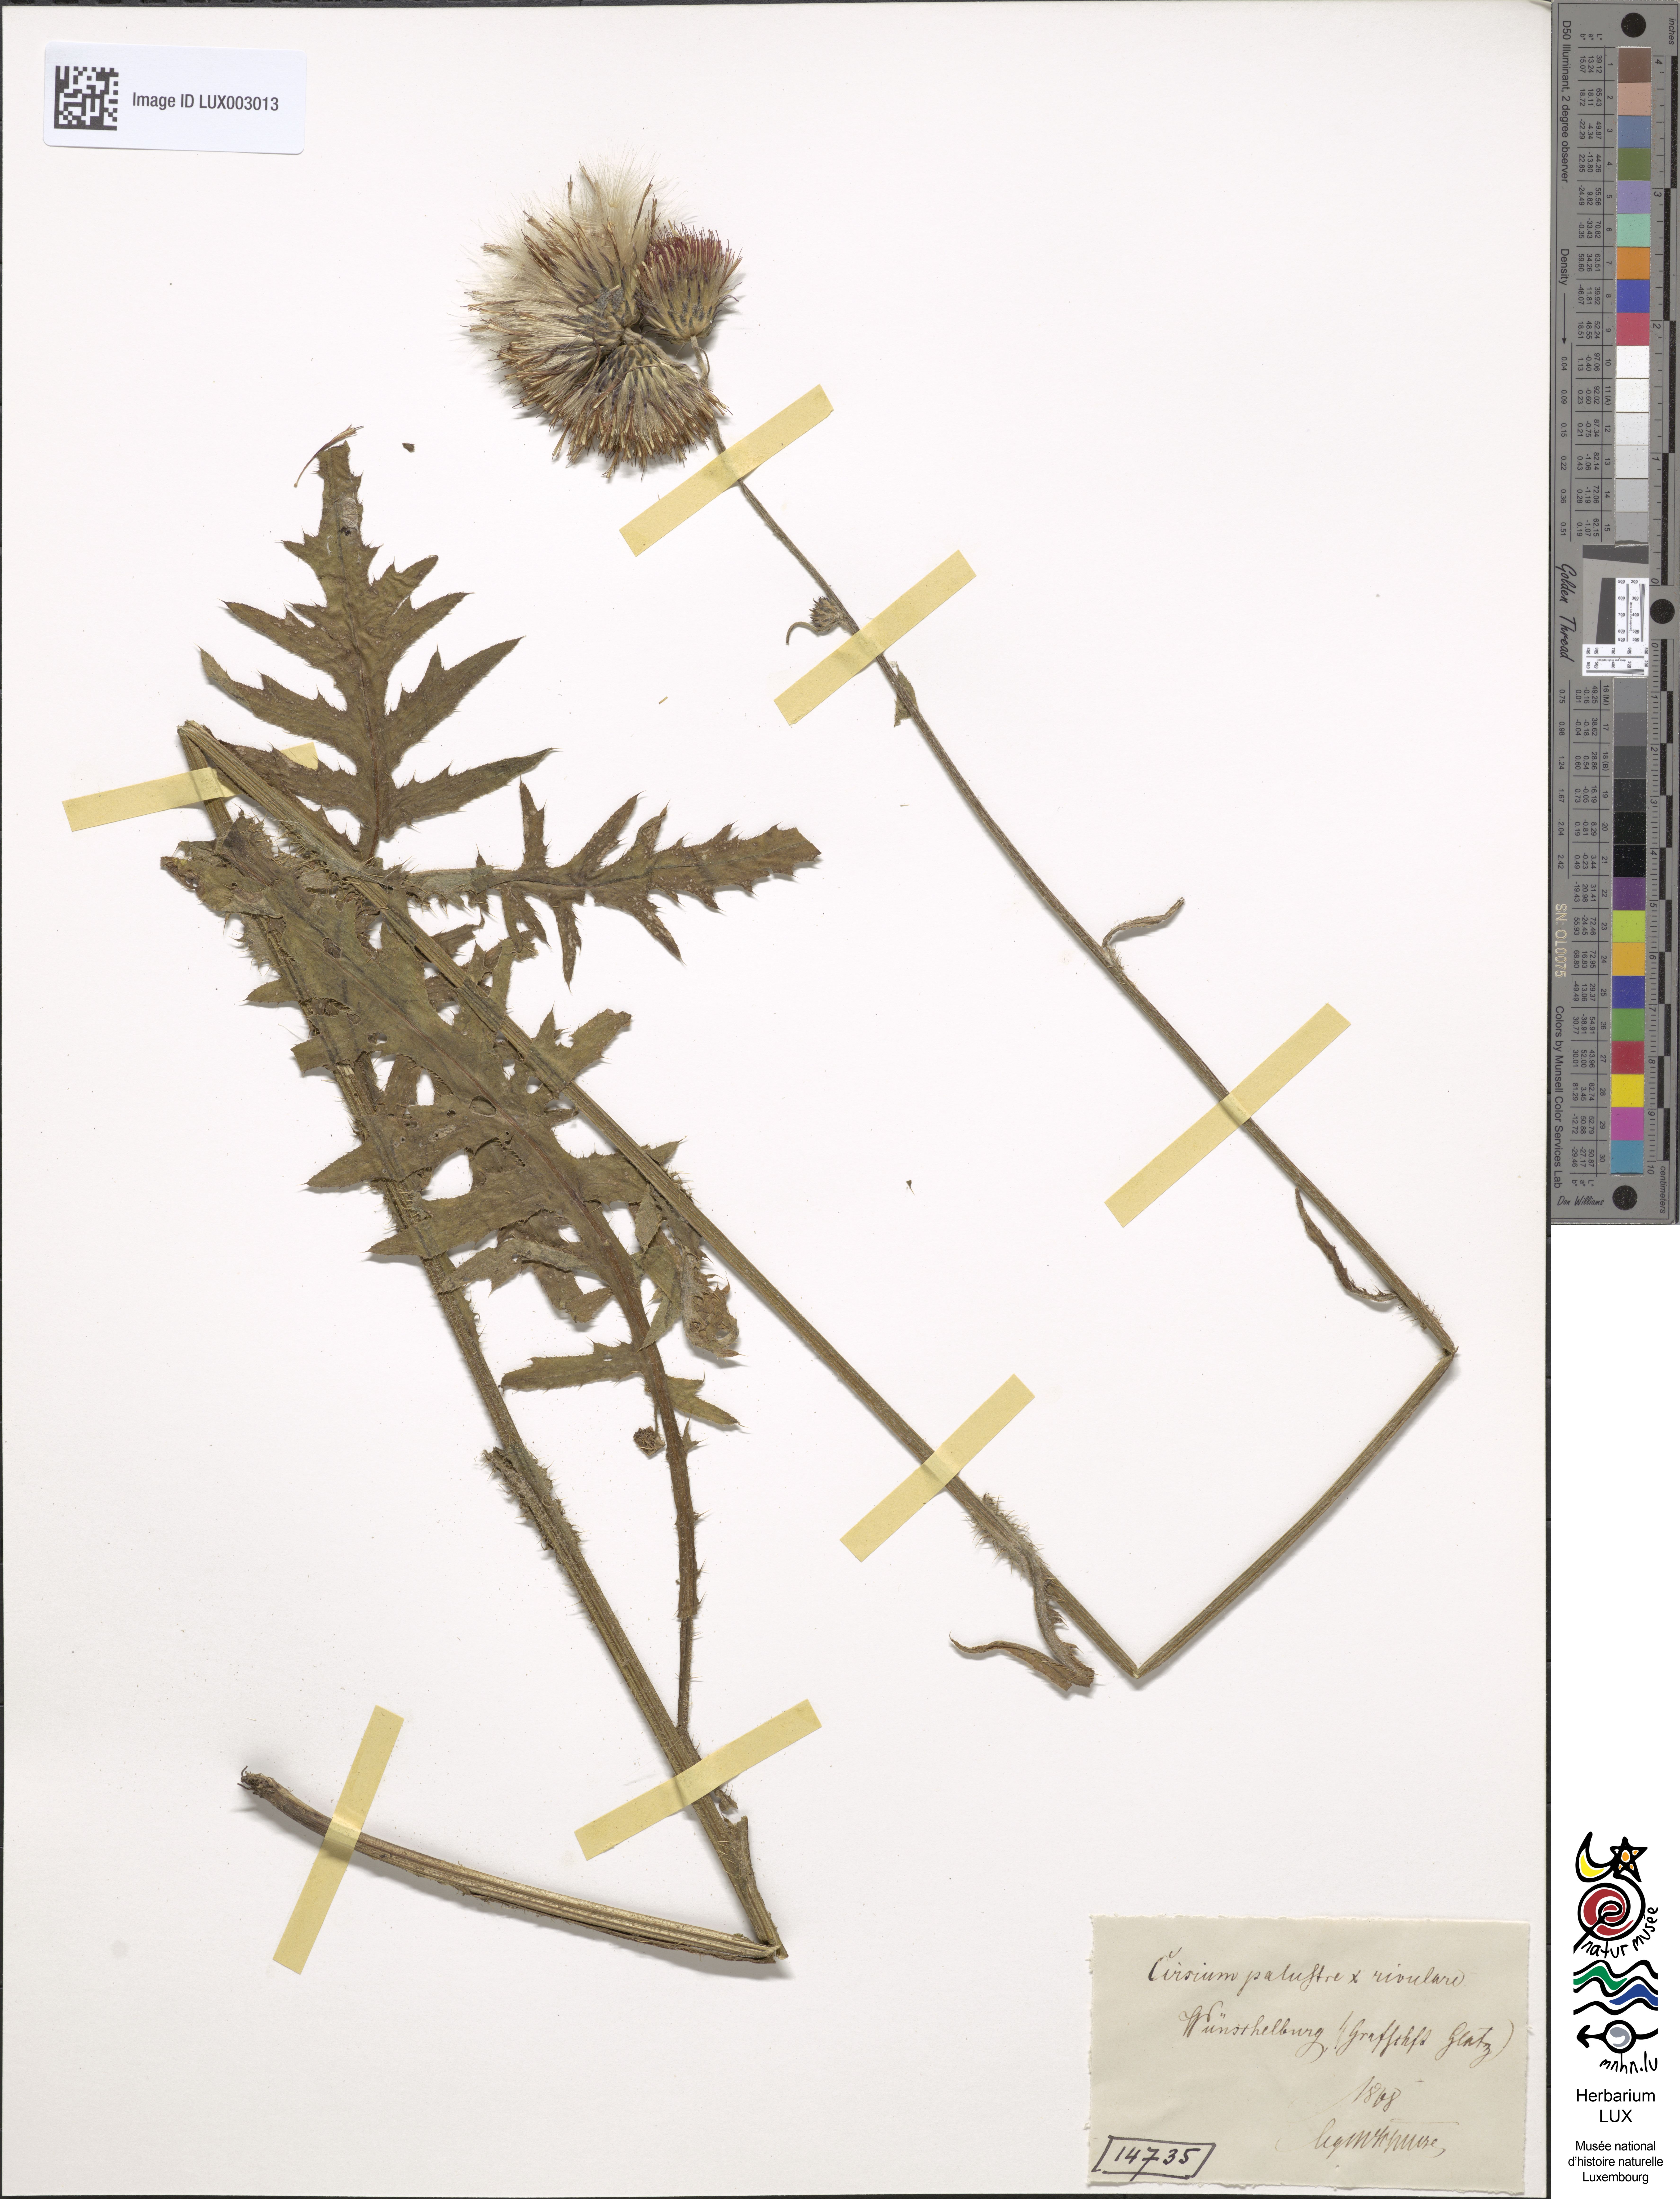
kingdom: Plantae
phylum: Tracheophyta
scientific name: Tracheophyta
